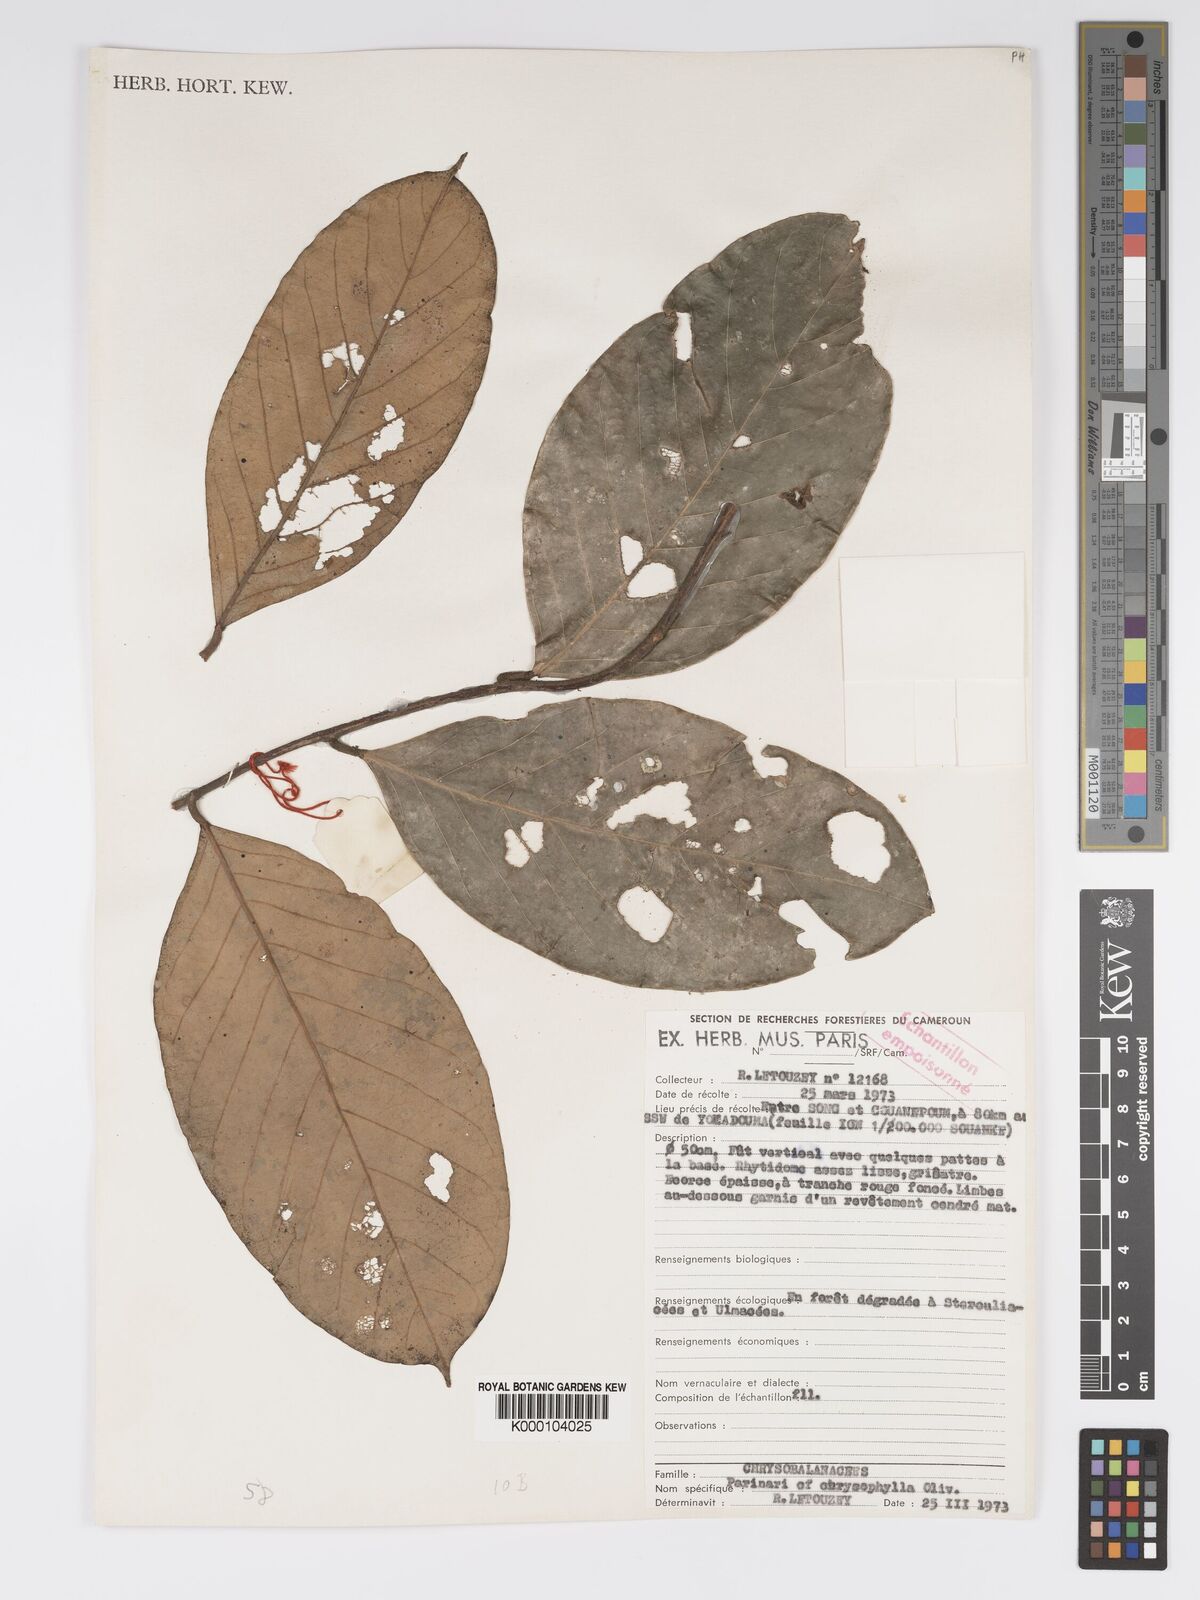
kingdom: Plantae
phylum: Tracheophyta
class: Magnoliopsida
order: Malpighiales
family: Chrysobalanaceae
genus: Maranthes
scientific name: Maranthes
